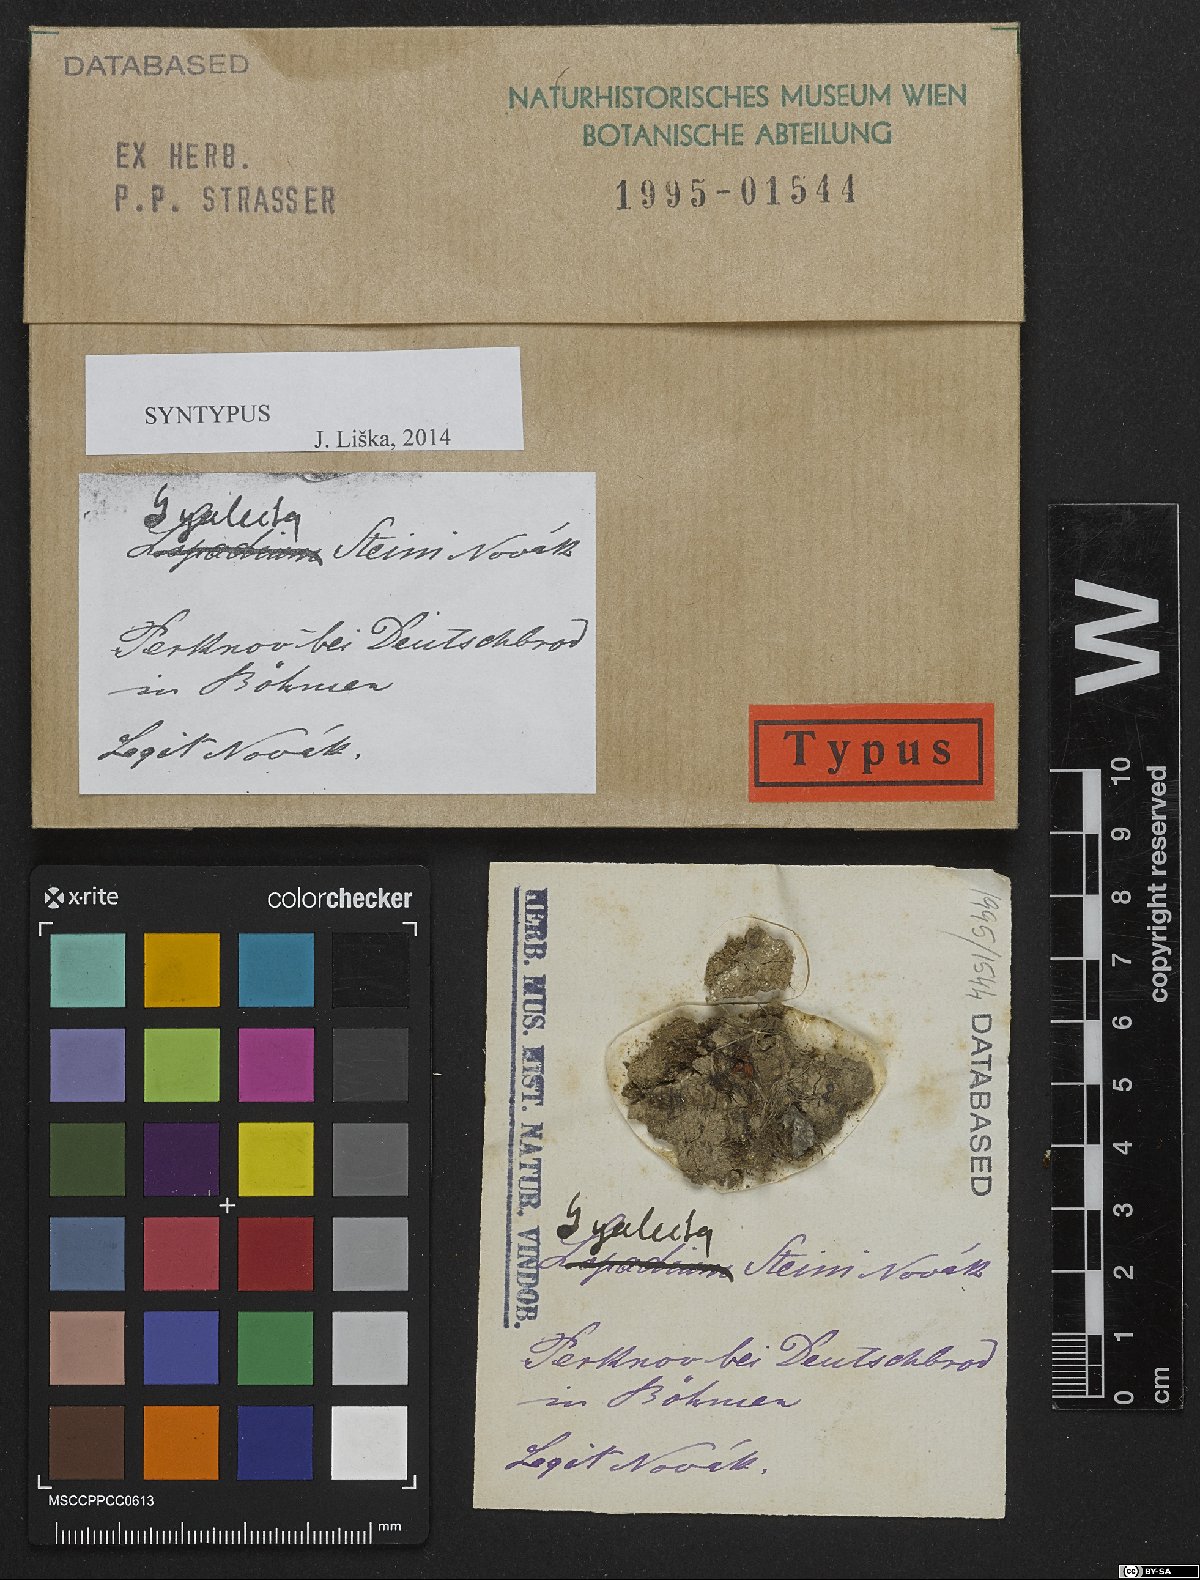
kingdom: Fungi
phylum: Ascomycota
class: Lecanoromycetes
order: Gyalectales
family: Gyalectaceae
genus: Gyalecta
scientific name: Gyalecta
